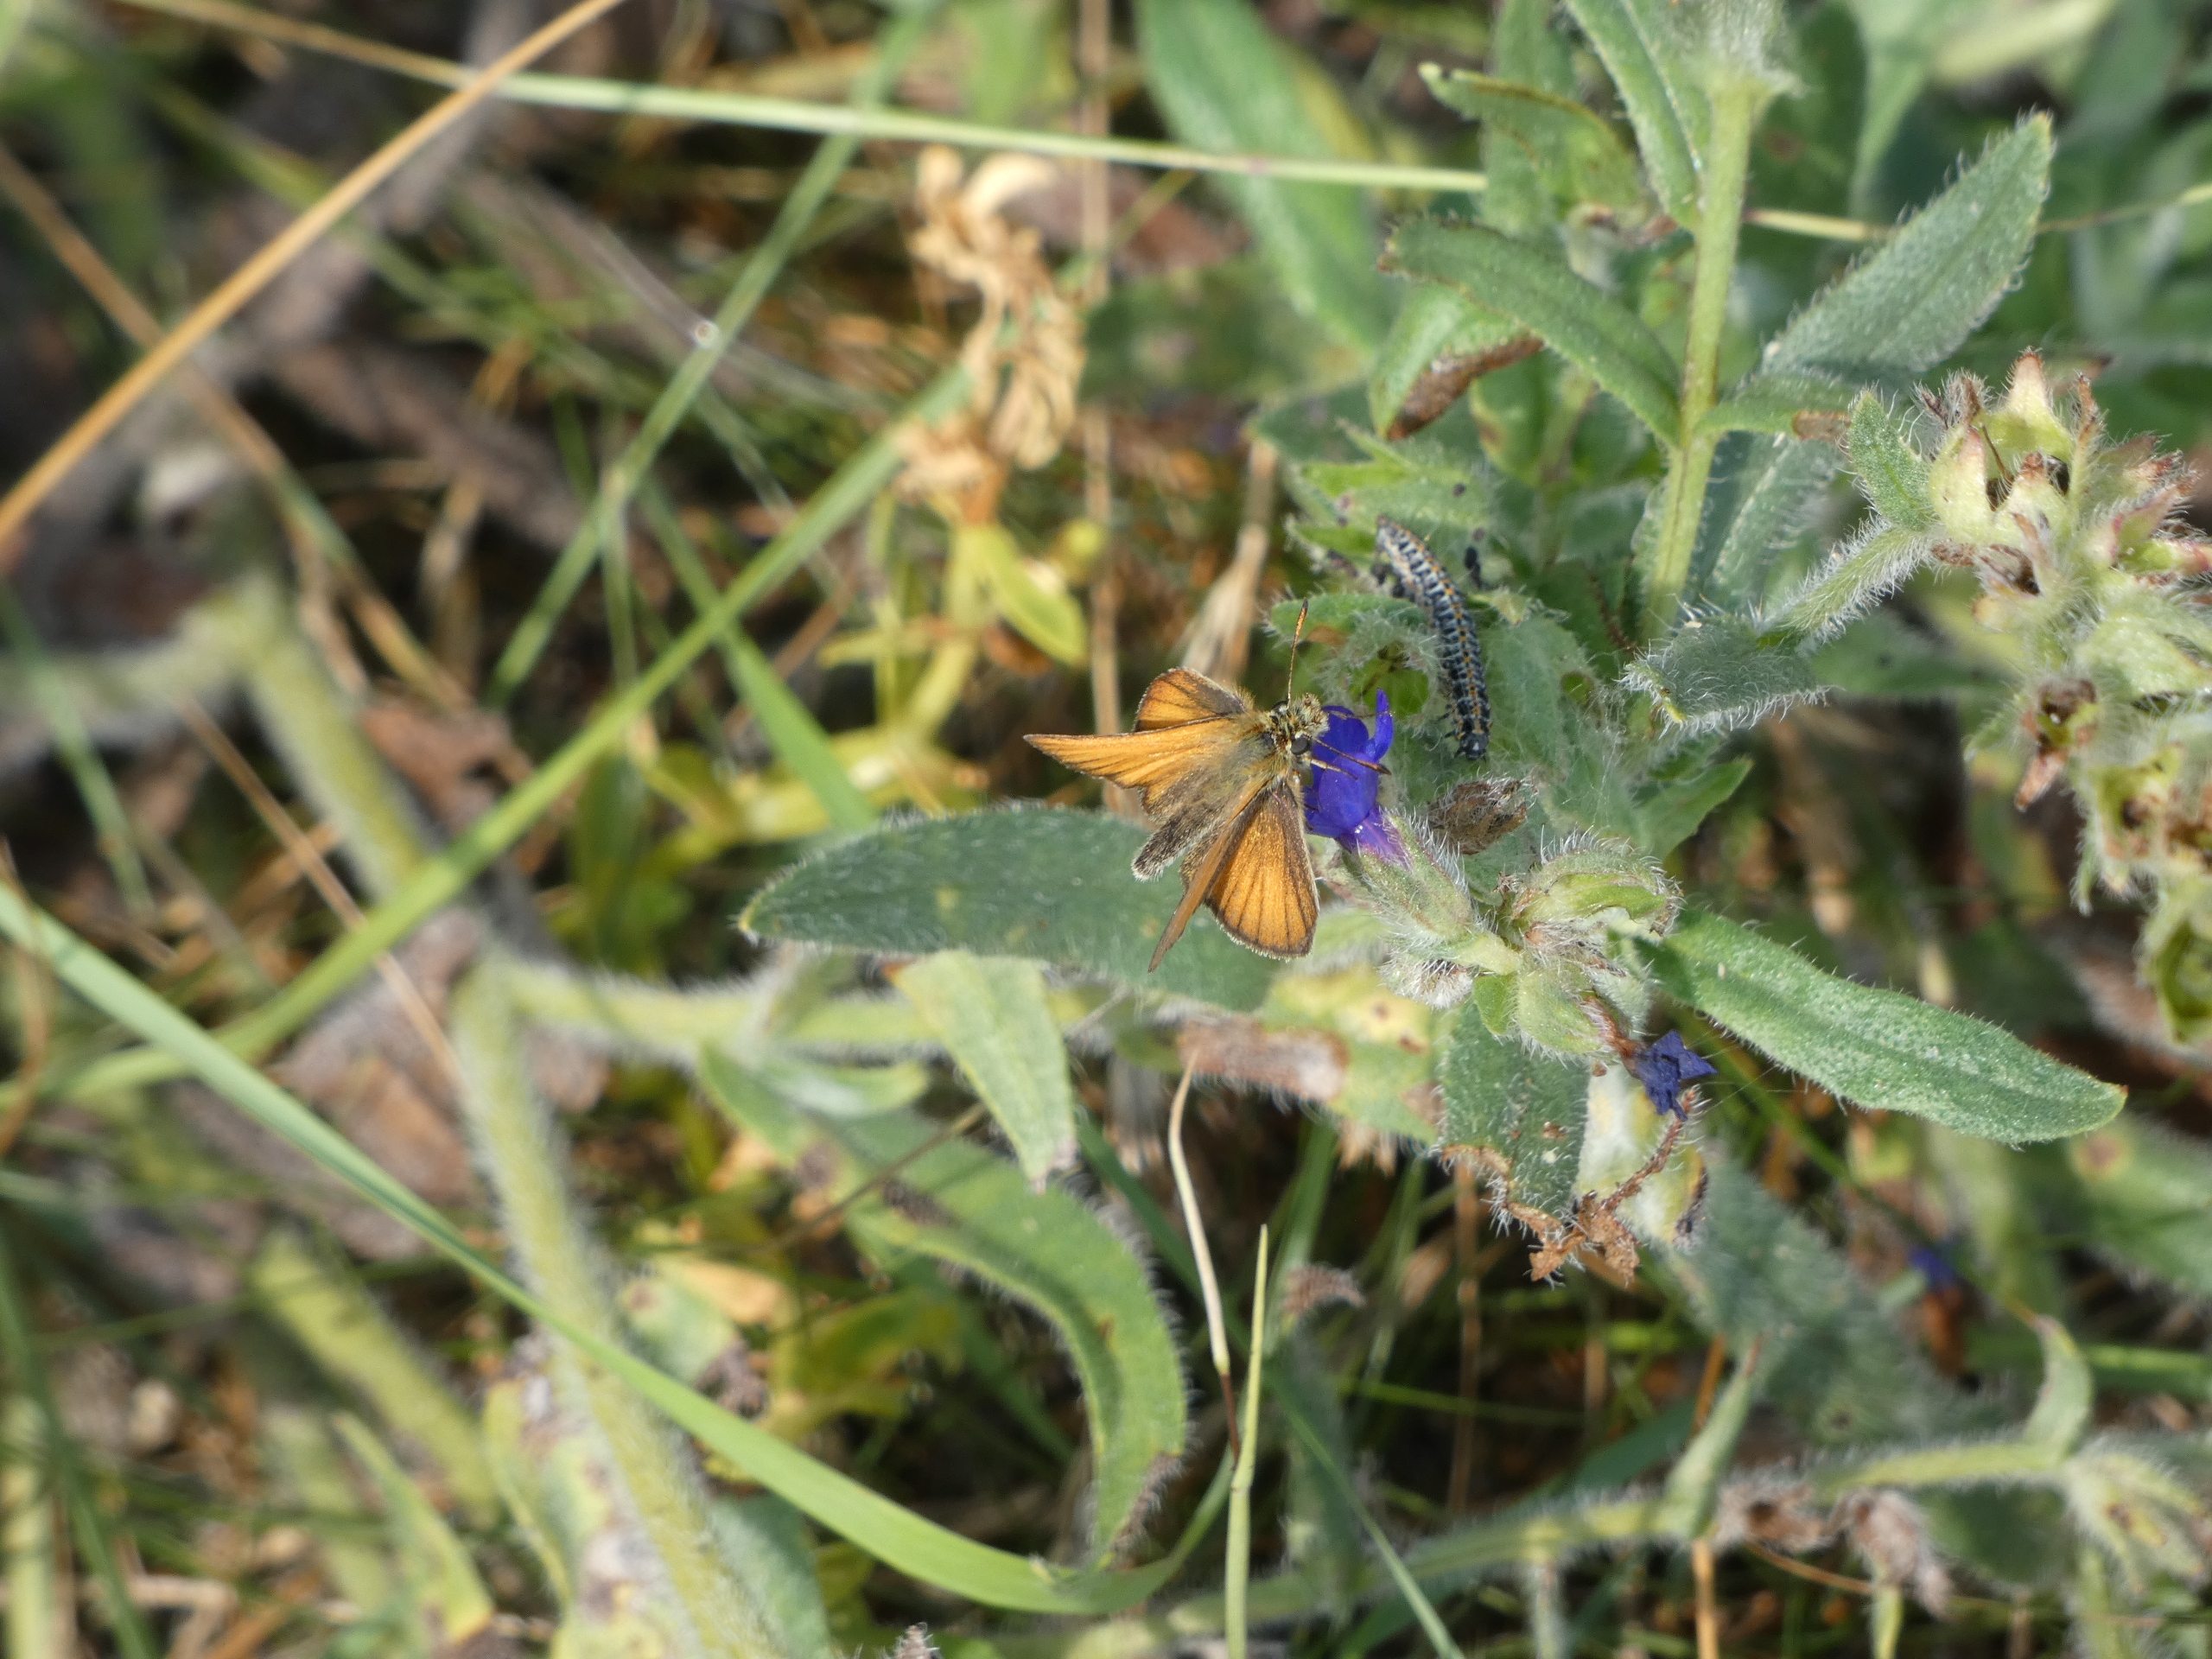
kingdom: Animalia
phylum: Arthropoda
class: Insecta
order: Lepidoptera
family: Ethmiidae
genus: Ethmia
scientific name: Ethmia bipunctella
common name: Slangehovedmøl
